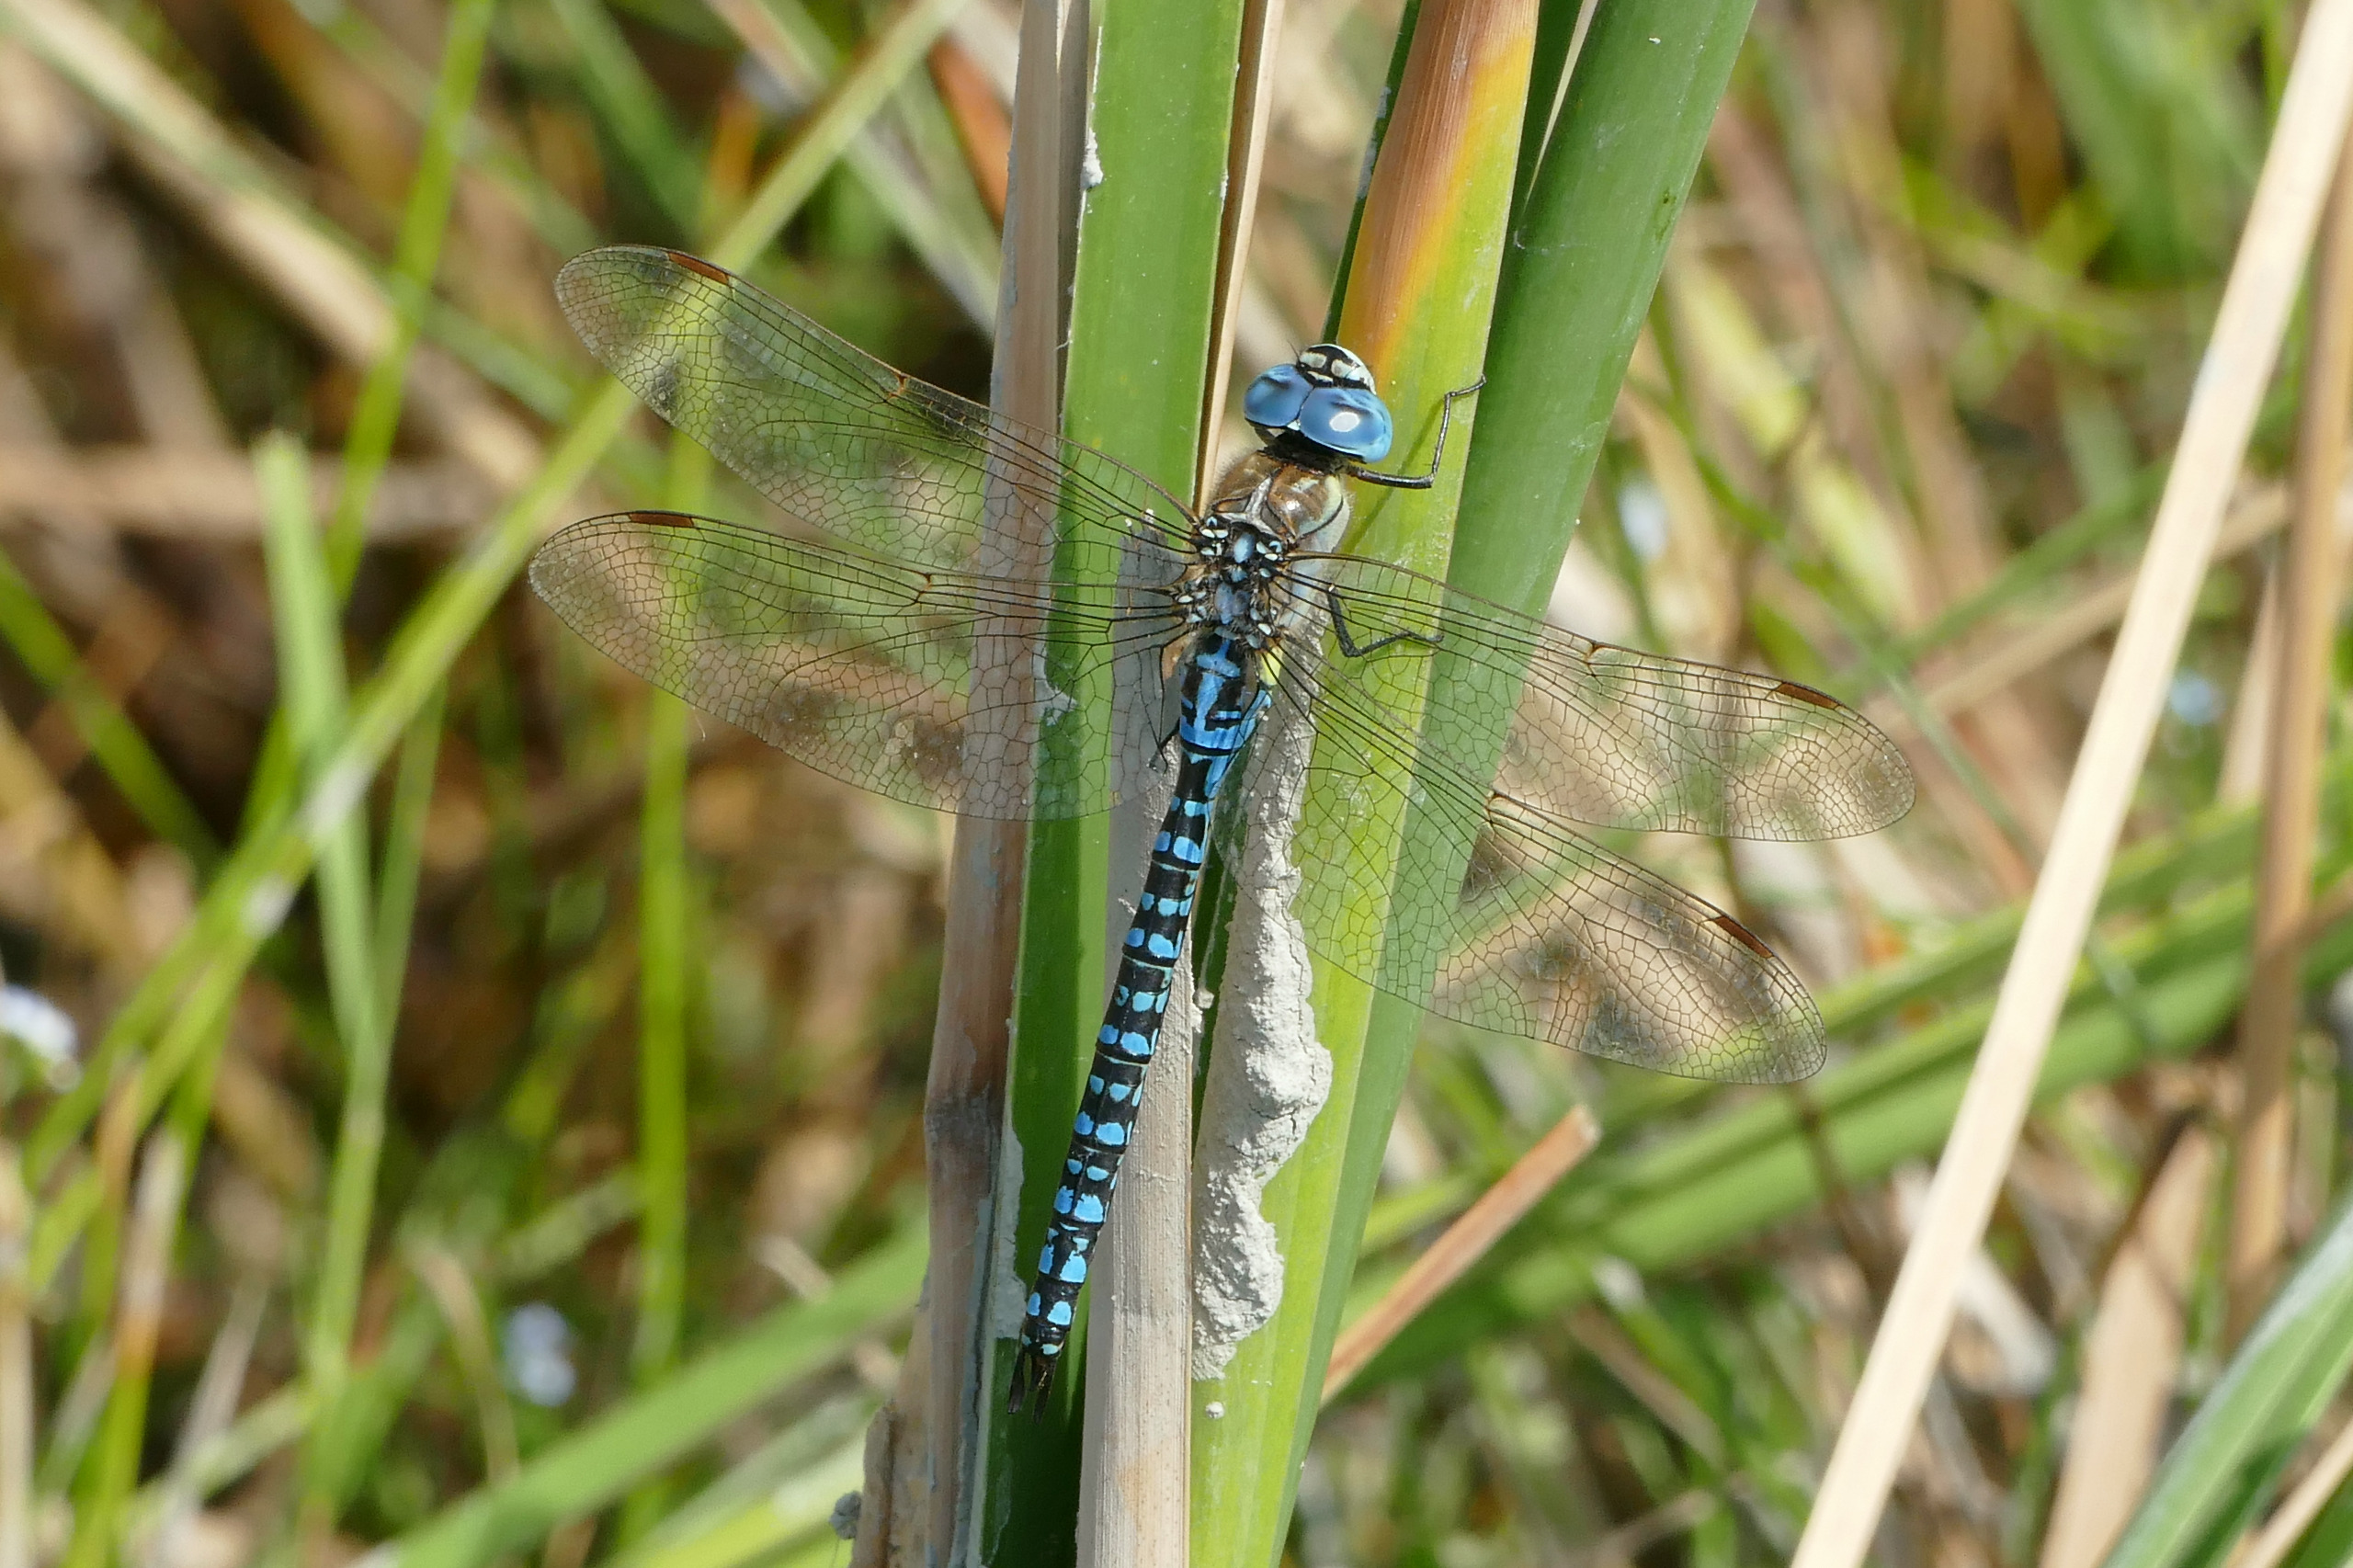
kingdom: Animalia
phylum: Arthropoda
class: Insecta
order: Odonata
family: Aeshnidae
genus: Aeshna
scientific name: Aeshna affinis
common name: Sydlig mosaikguldsmed
